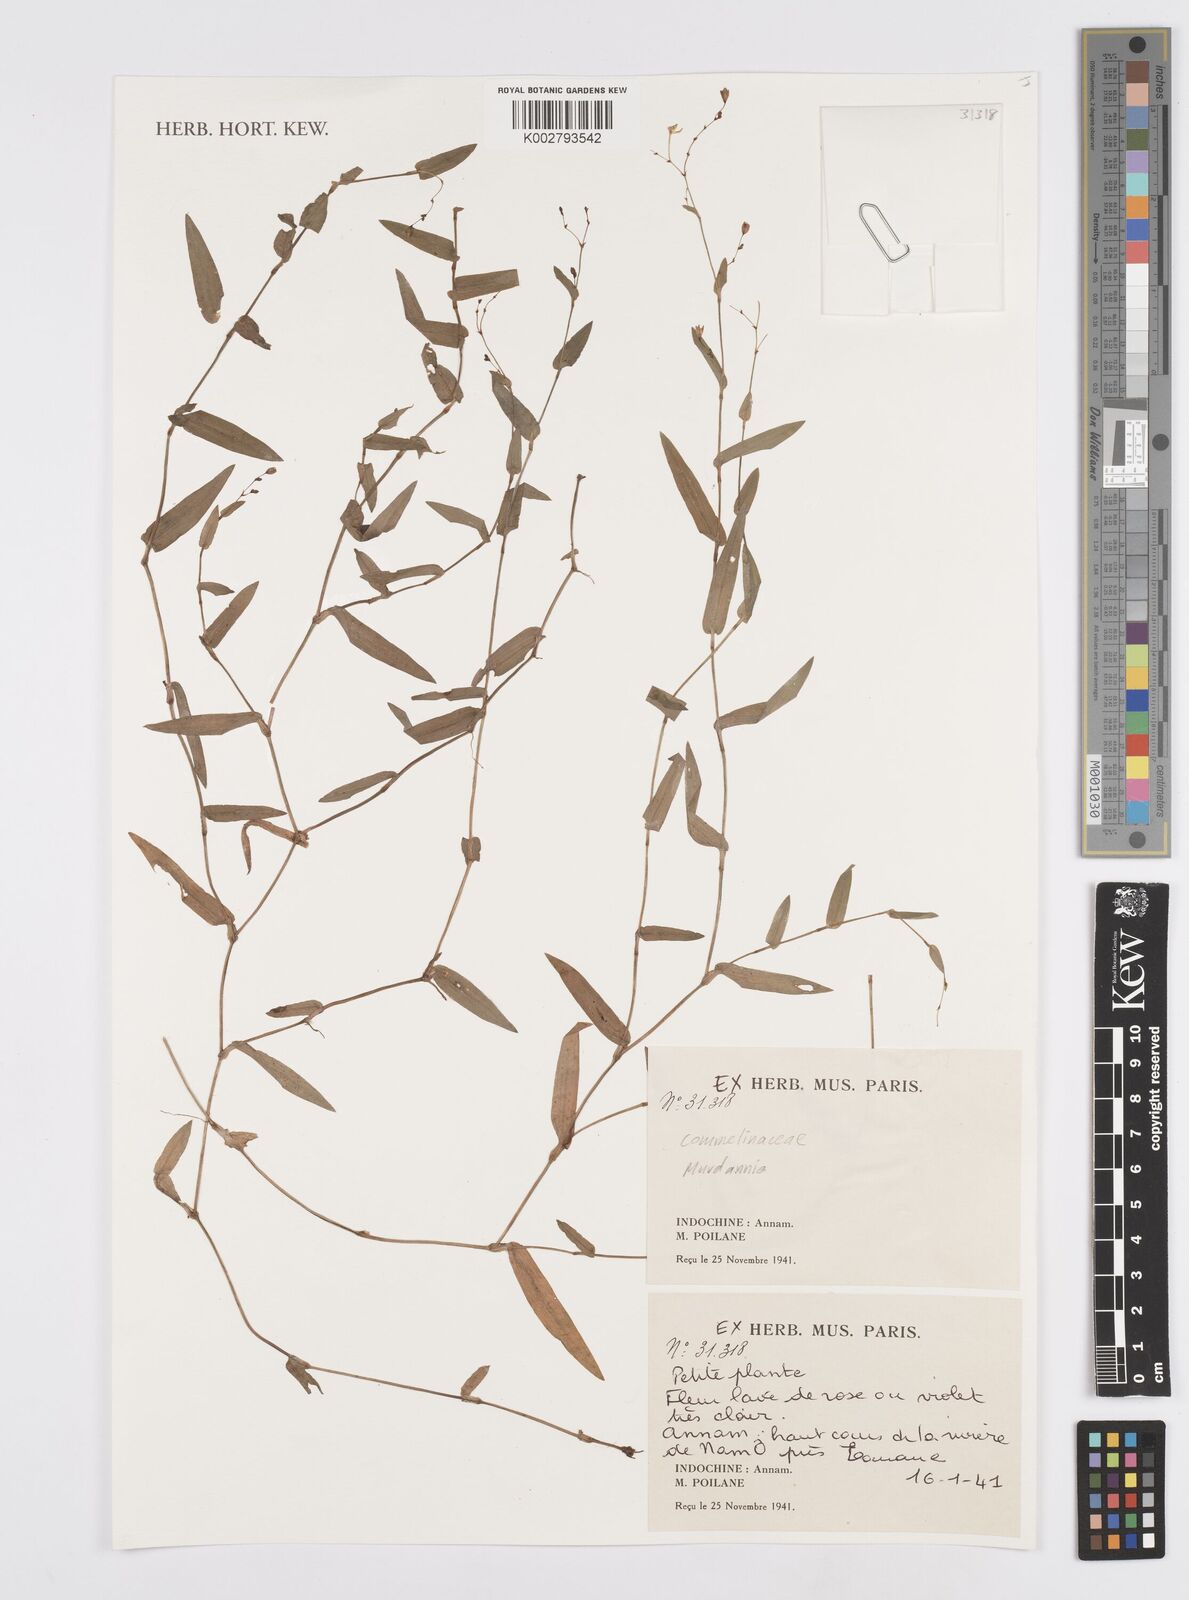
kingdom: Plantae
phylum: Tracheophyta
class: Liliopsida
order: Commelinales
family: Commelinaceae
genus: Murdannia
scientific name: Murdannia
